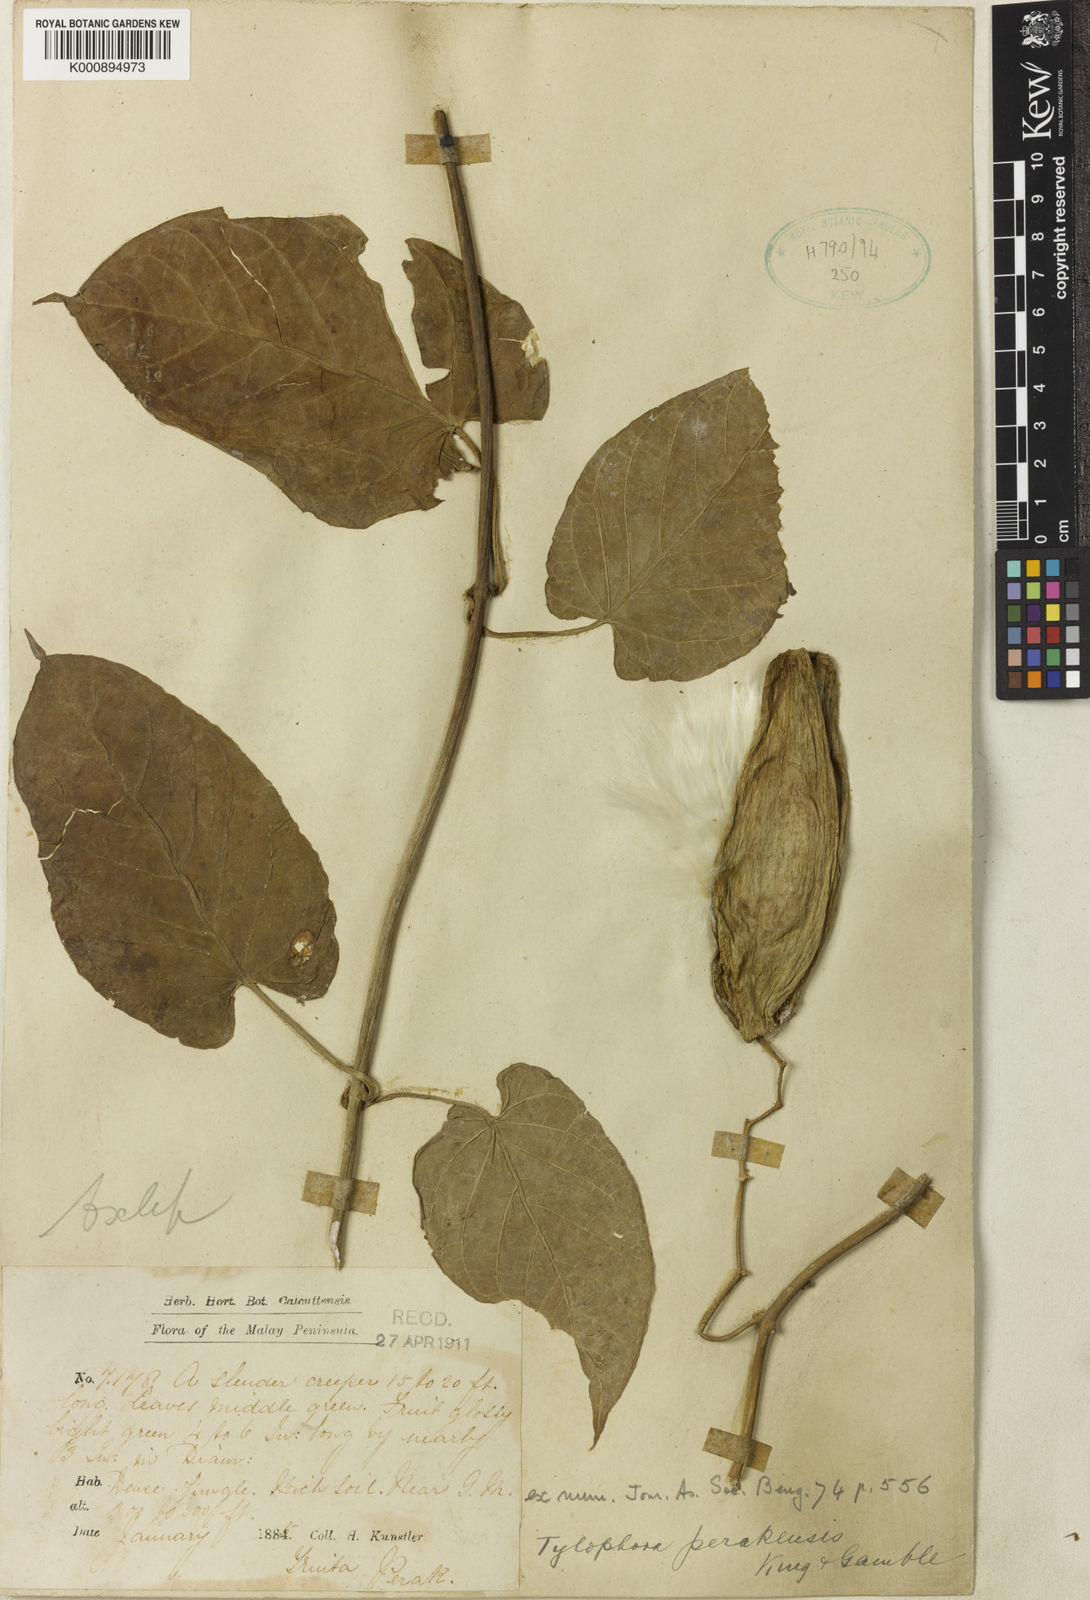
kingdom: Plantae
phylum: Tracheophyta
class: Magnoliopsida
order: Gentianales
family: Apocynaceae
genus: Vincetoxicum
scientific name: Vincetoxicum cissoides
